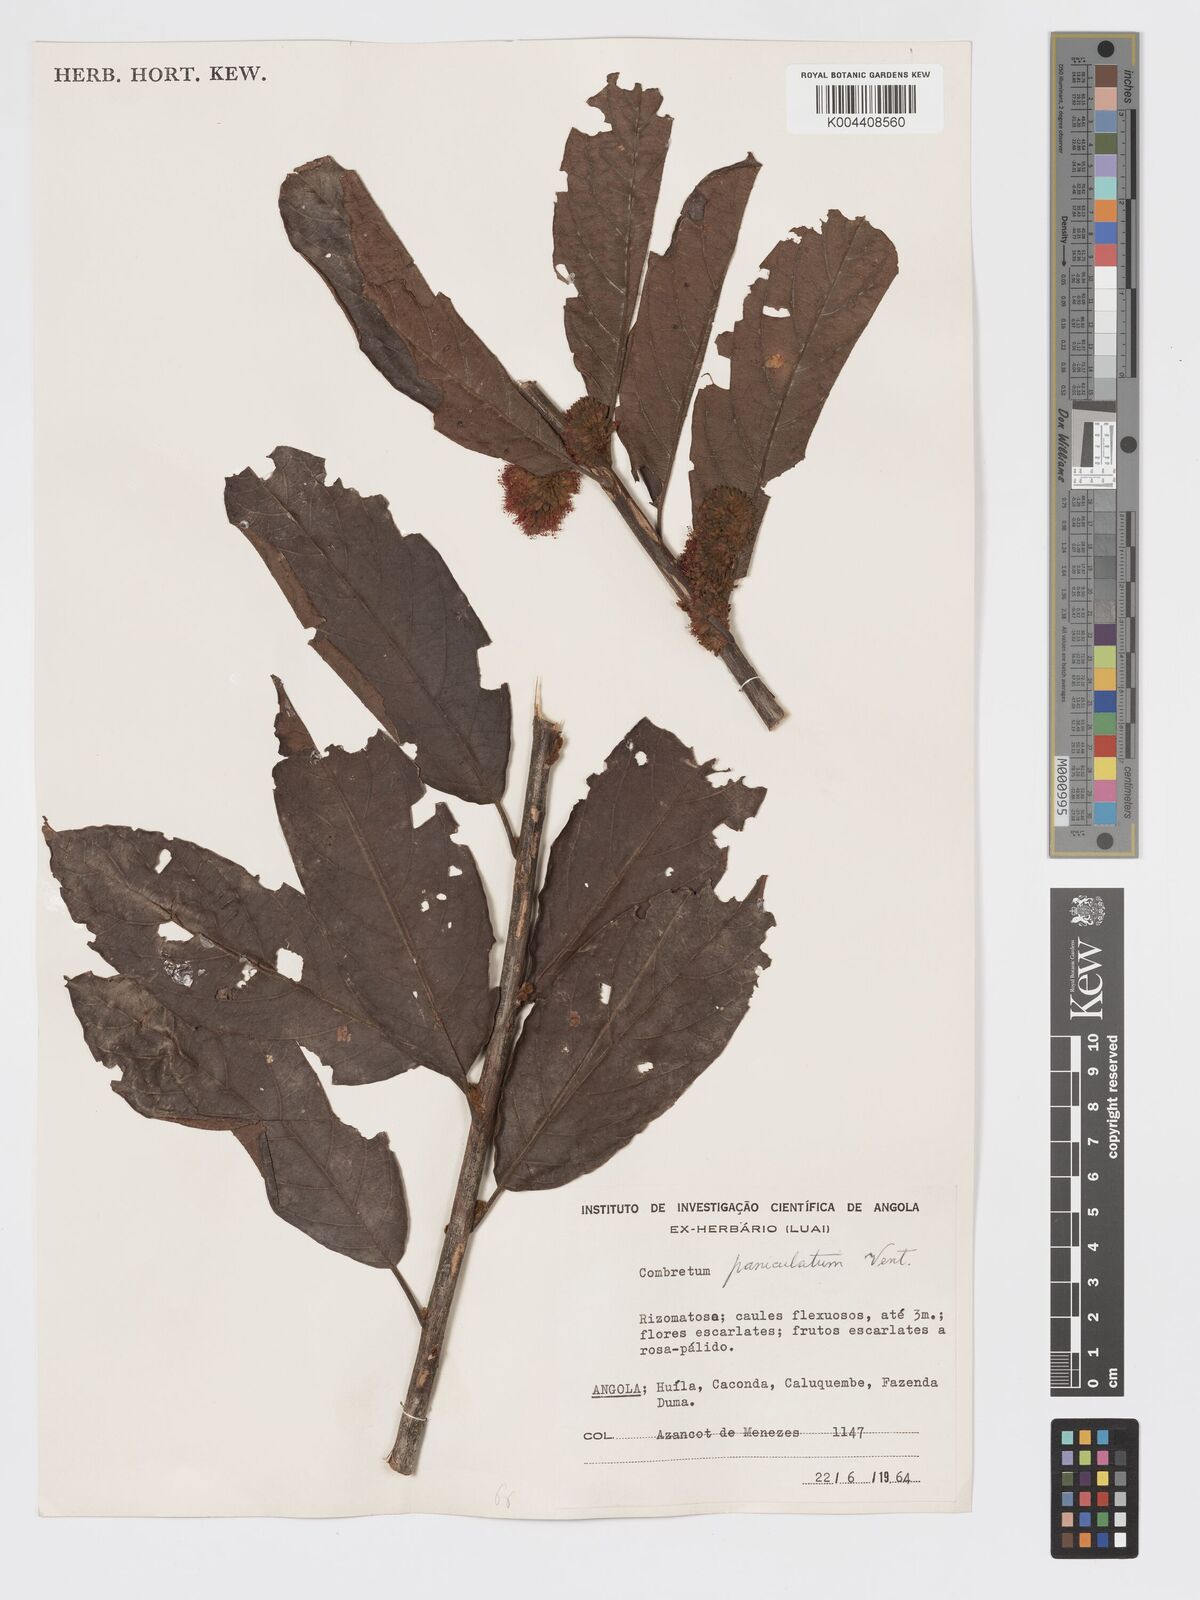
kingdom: Plantae
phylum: Tracheophyta
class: Magnoliopsida
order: Myrtales
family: Combretaceae
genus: Combretum
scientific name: Combretum paniculatum
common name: Fire vine
